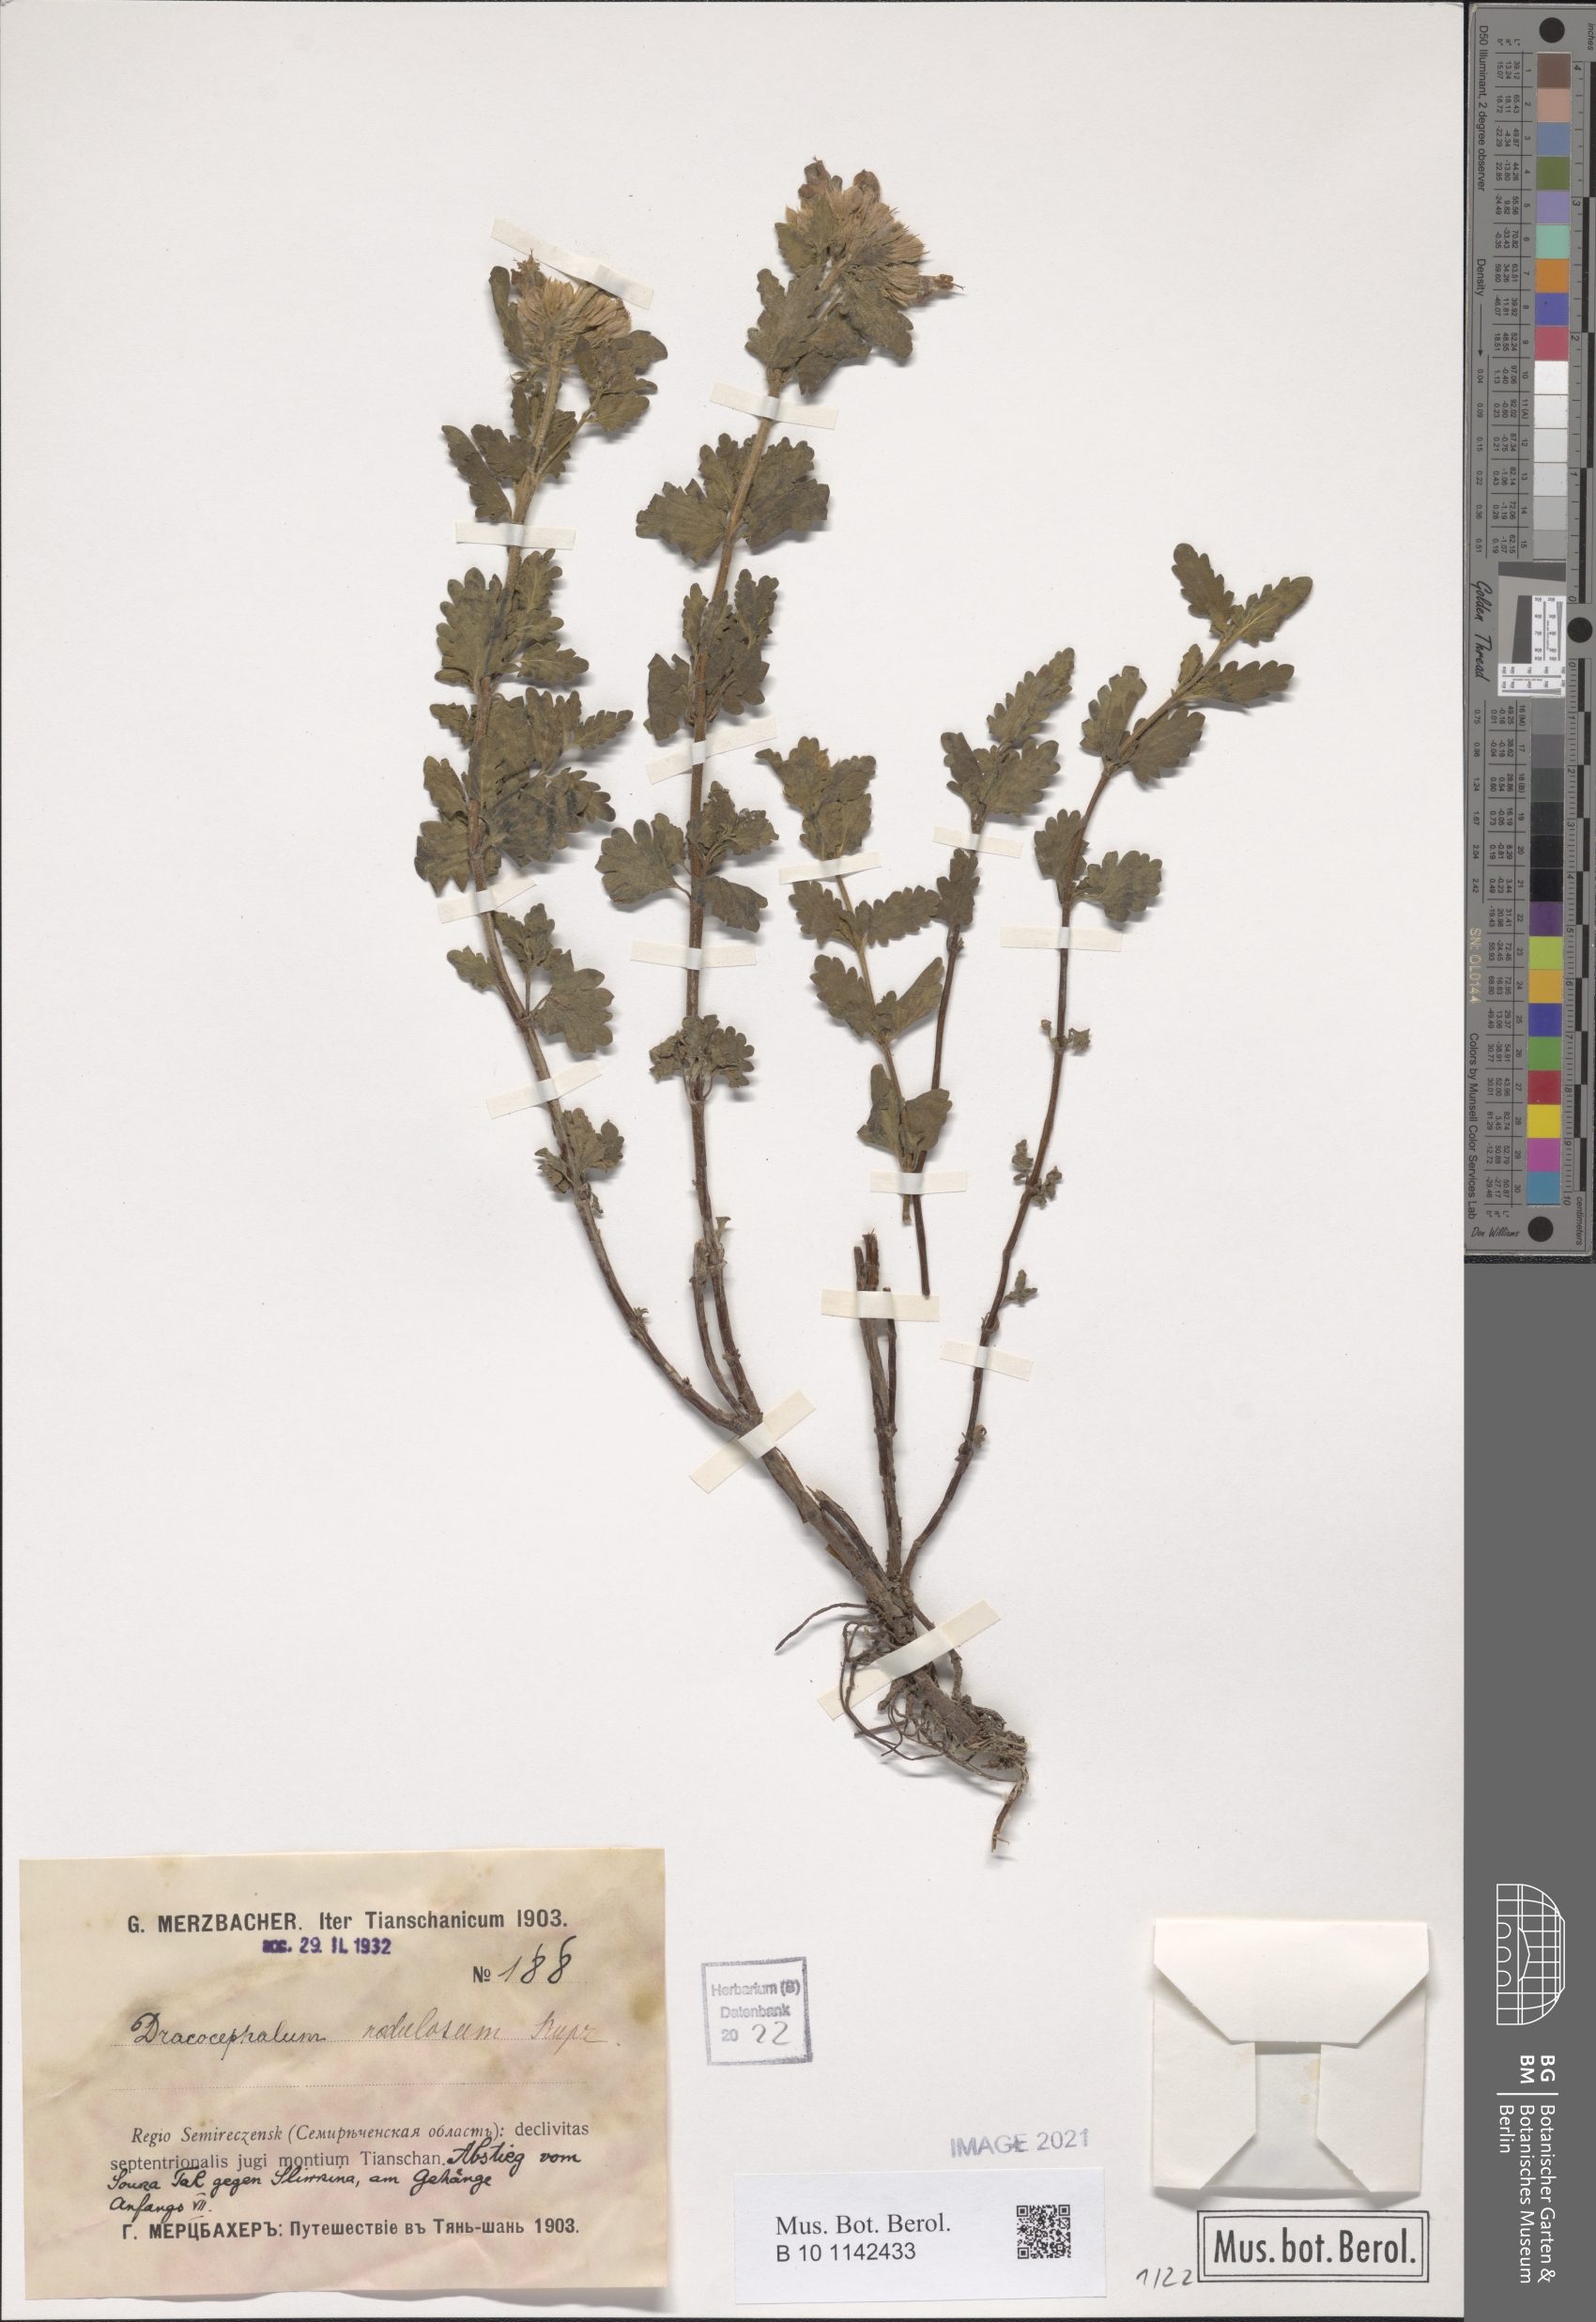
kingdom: Plantae
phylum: Tracheophyta
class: Magnoliopsida
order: Lamiales
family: Lamiaceae
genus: Dracocephalum
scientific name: Dracocephalum nodulosum
